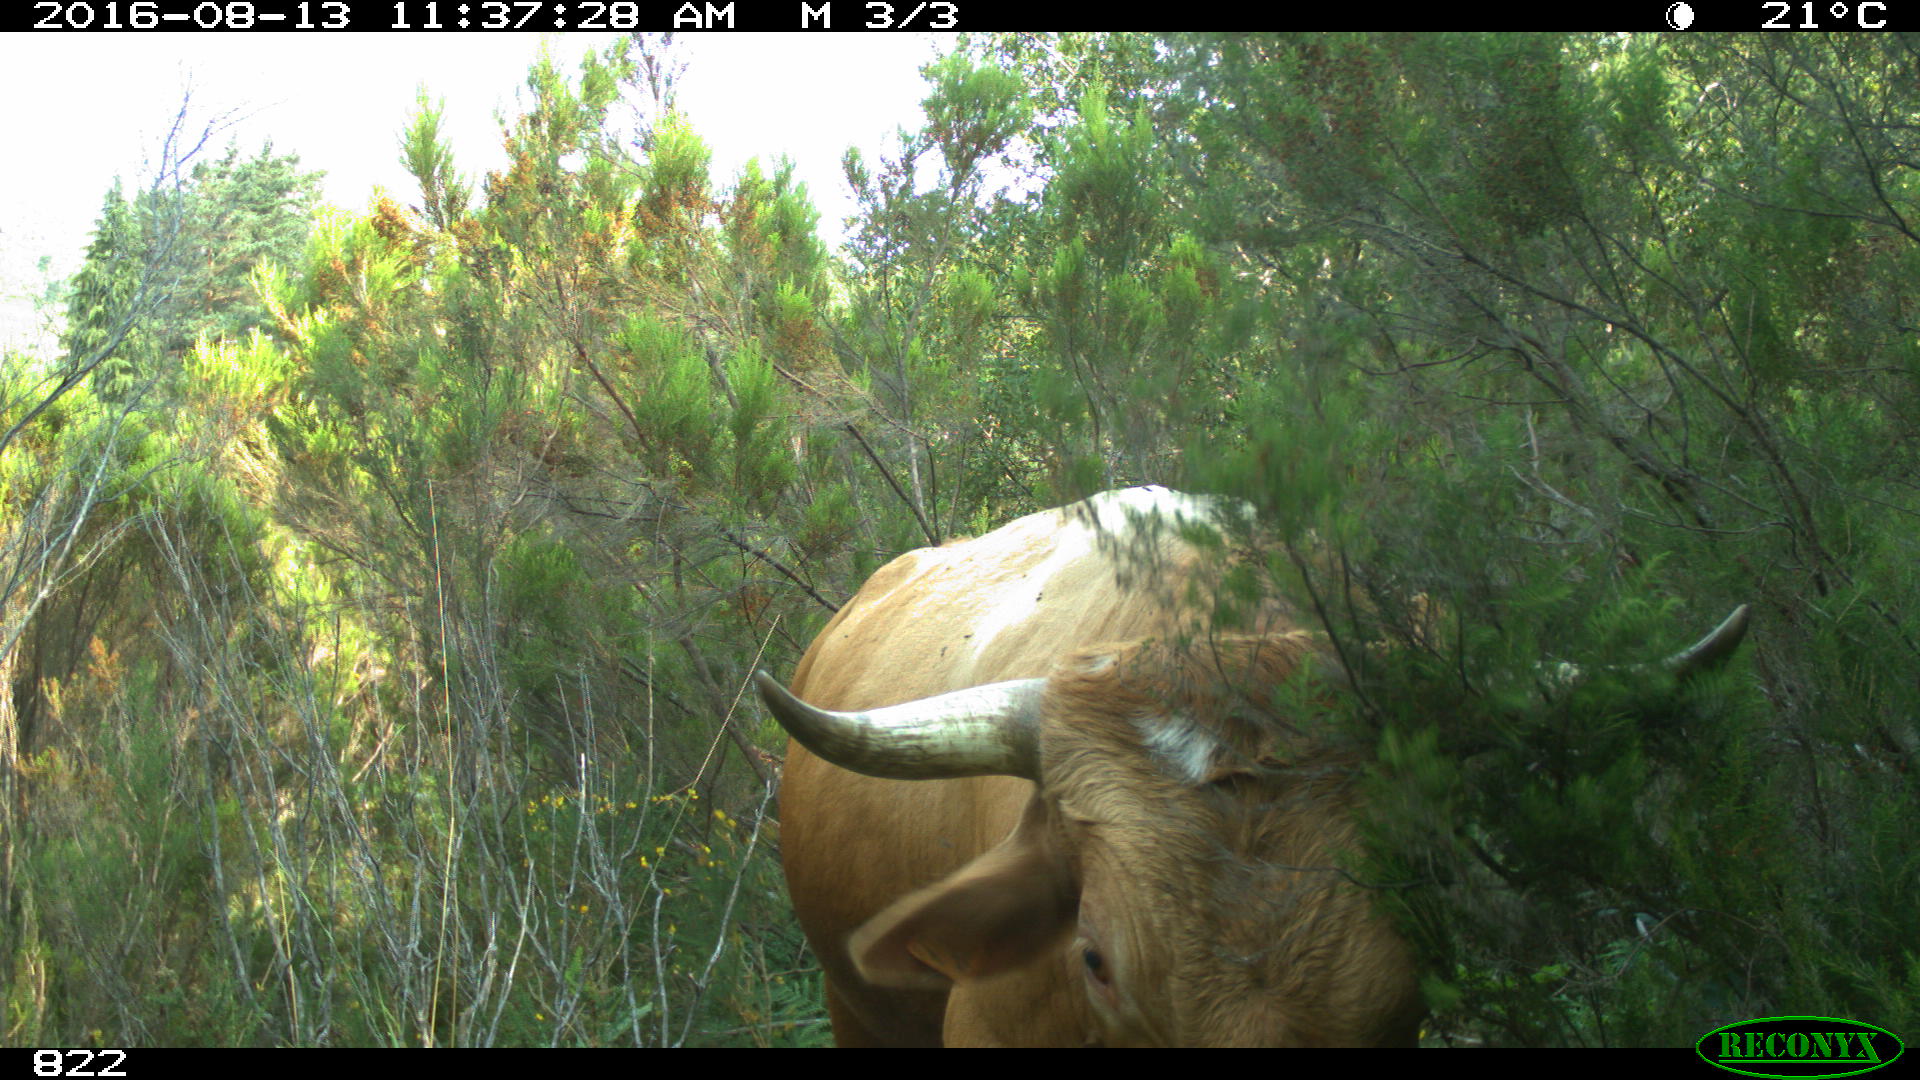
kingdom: Animalia
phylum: Chordata
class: Mammalia
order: Artiodactyla
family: Bovidae
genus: Bos
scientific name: Bos taurus
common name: Domesticated cattle
